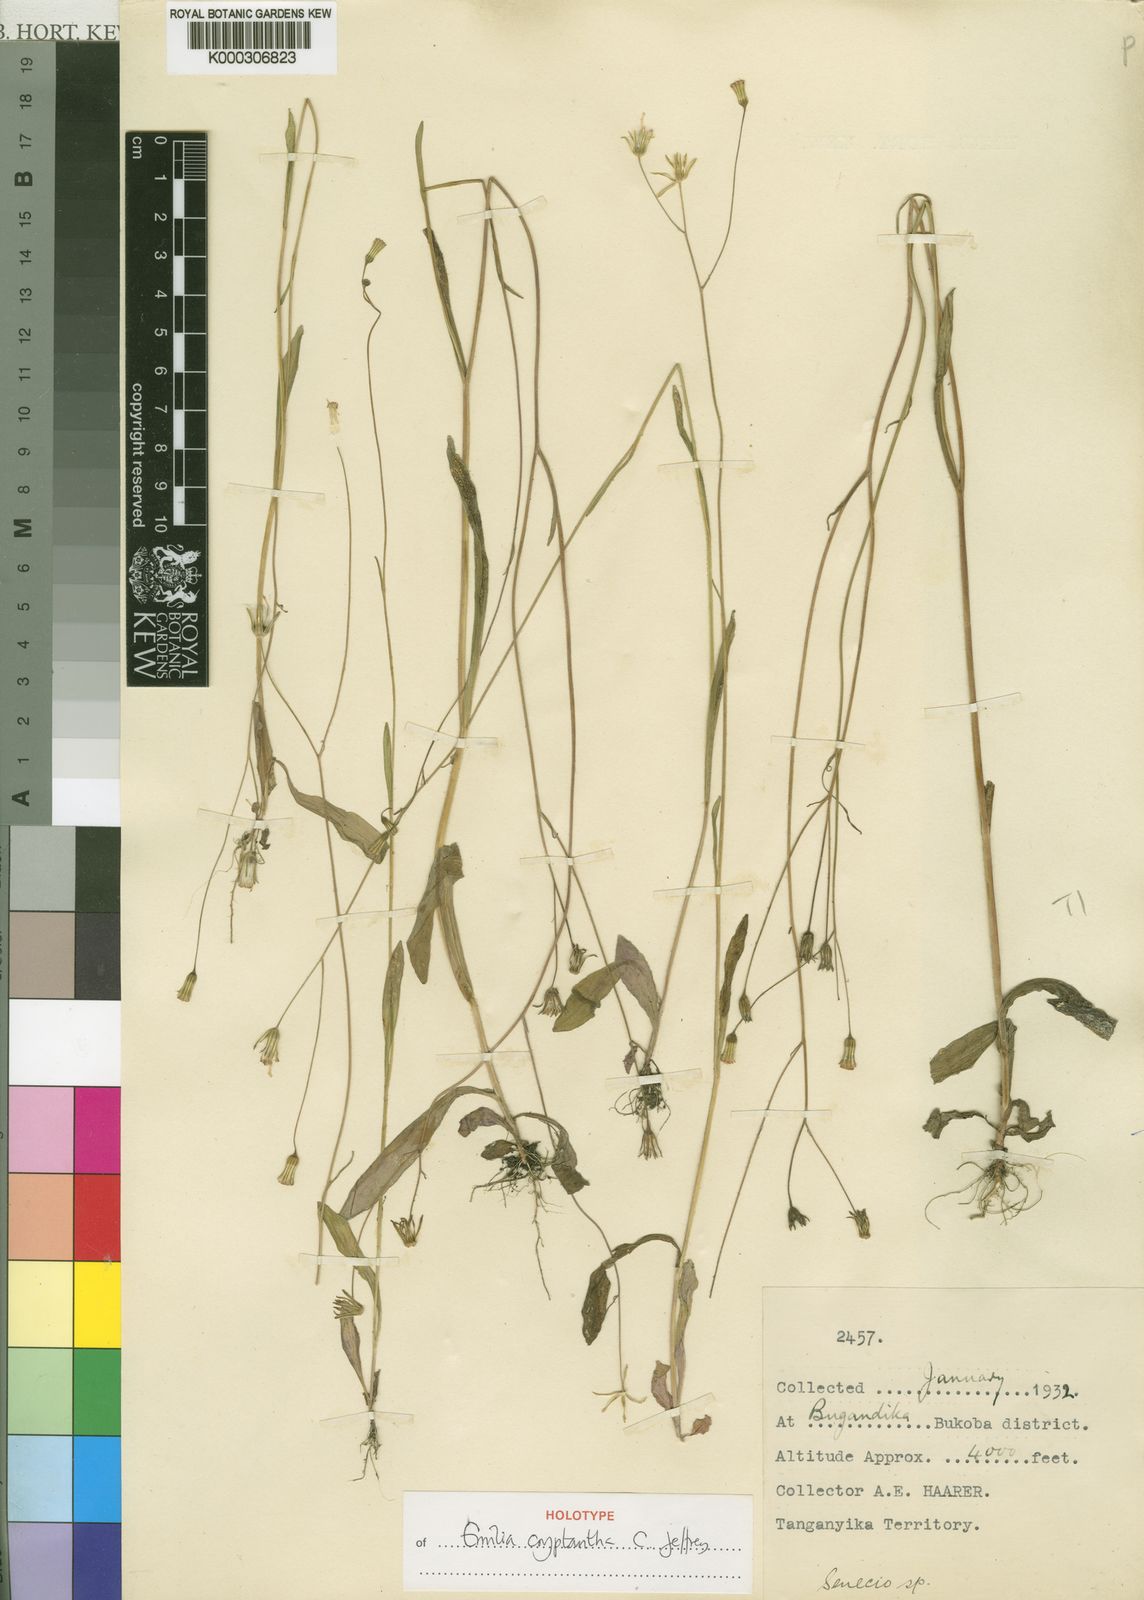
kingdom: Plantae
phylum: Tracheophyta
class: Magnoliopsida
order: Asterales
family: Asteraceae
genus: Emilia
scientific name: Emilia cryptantha
